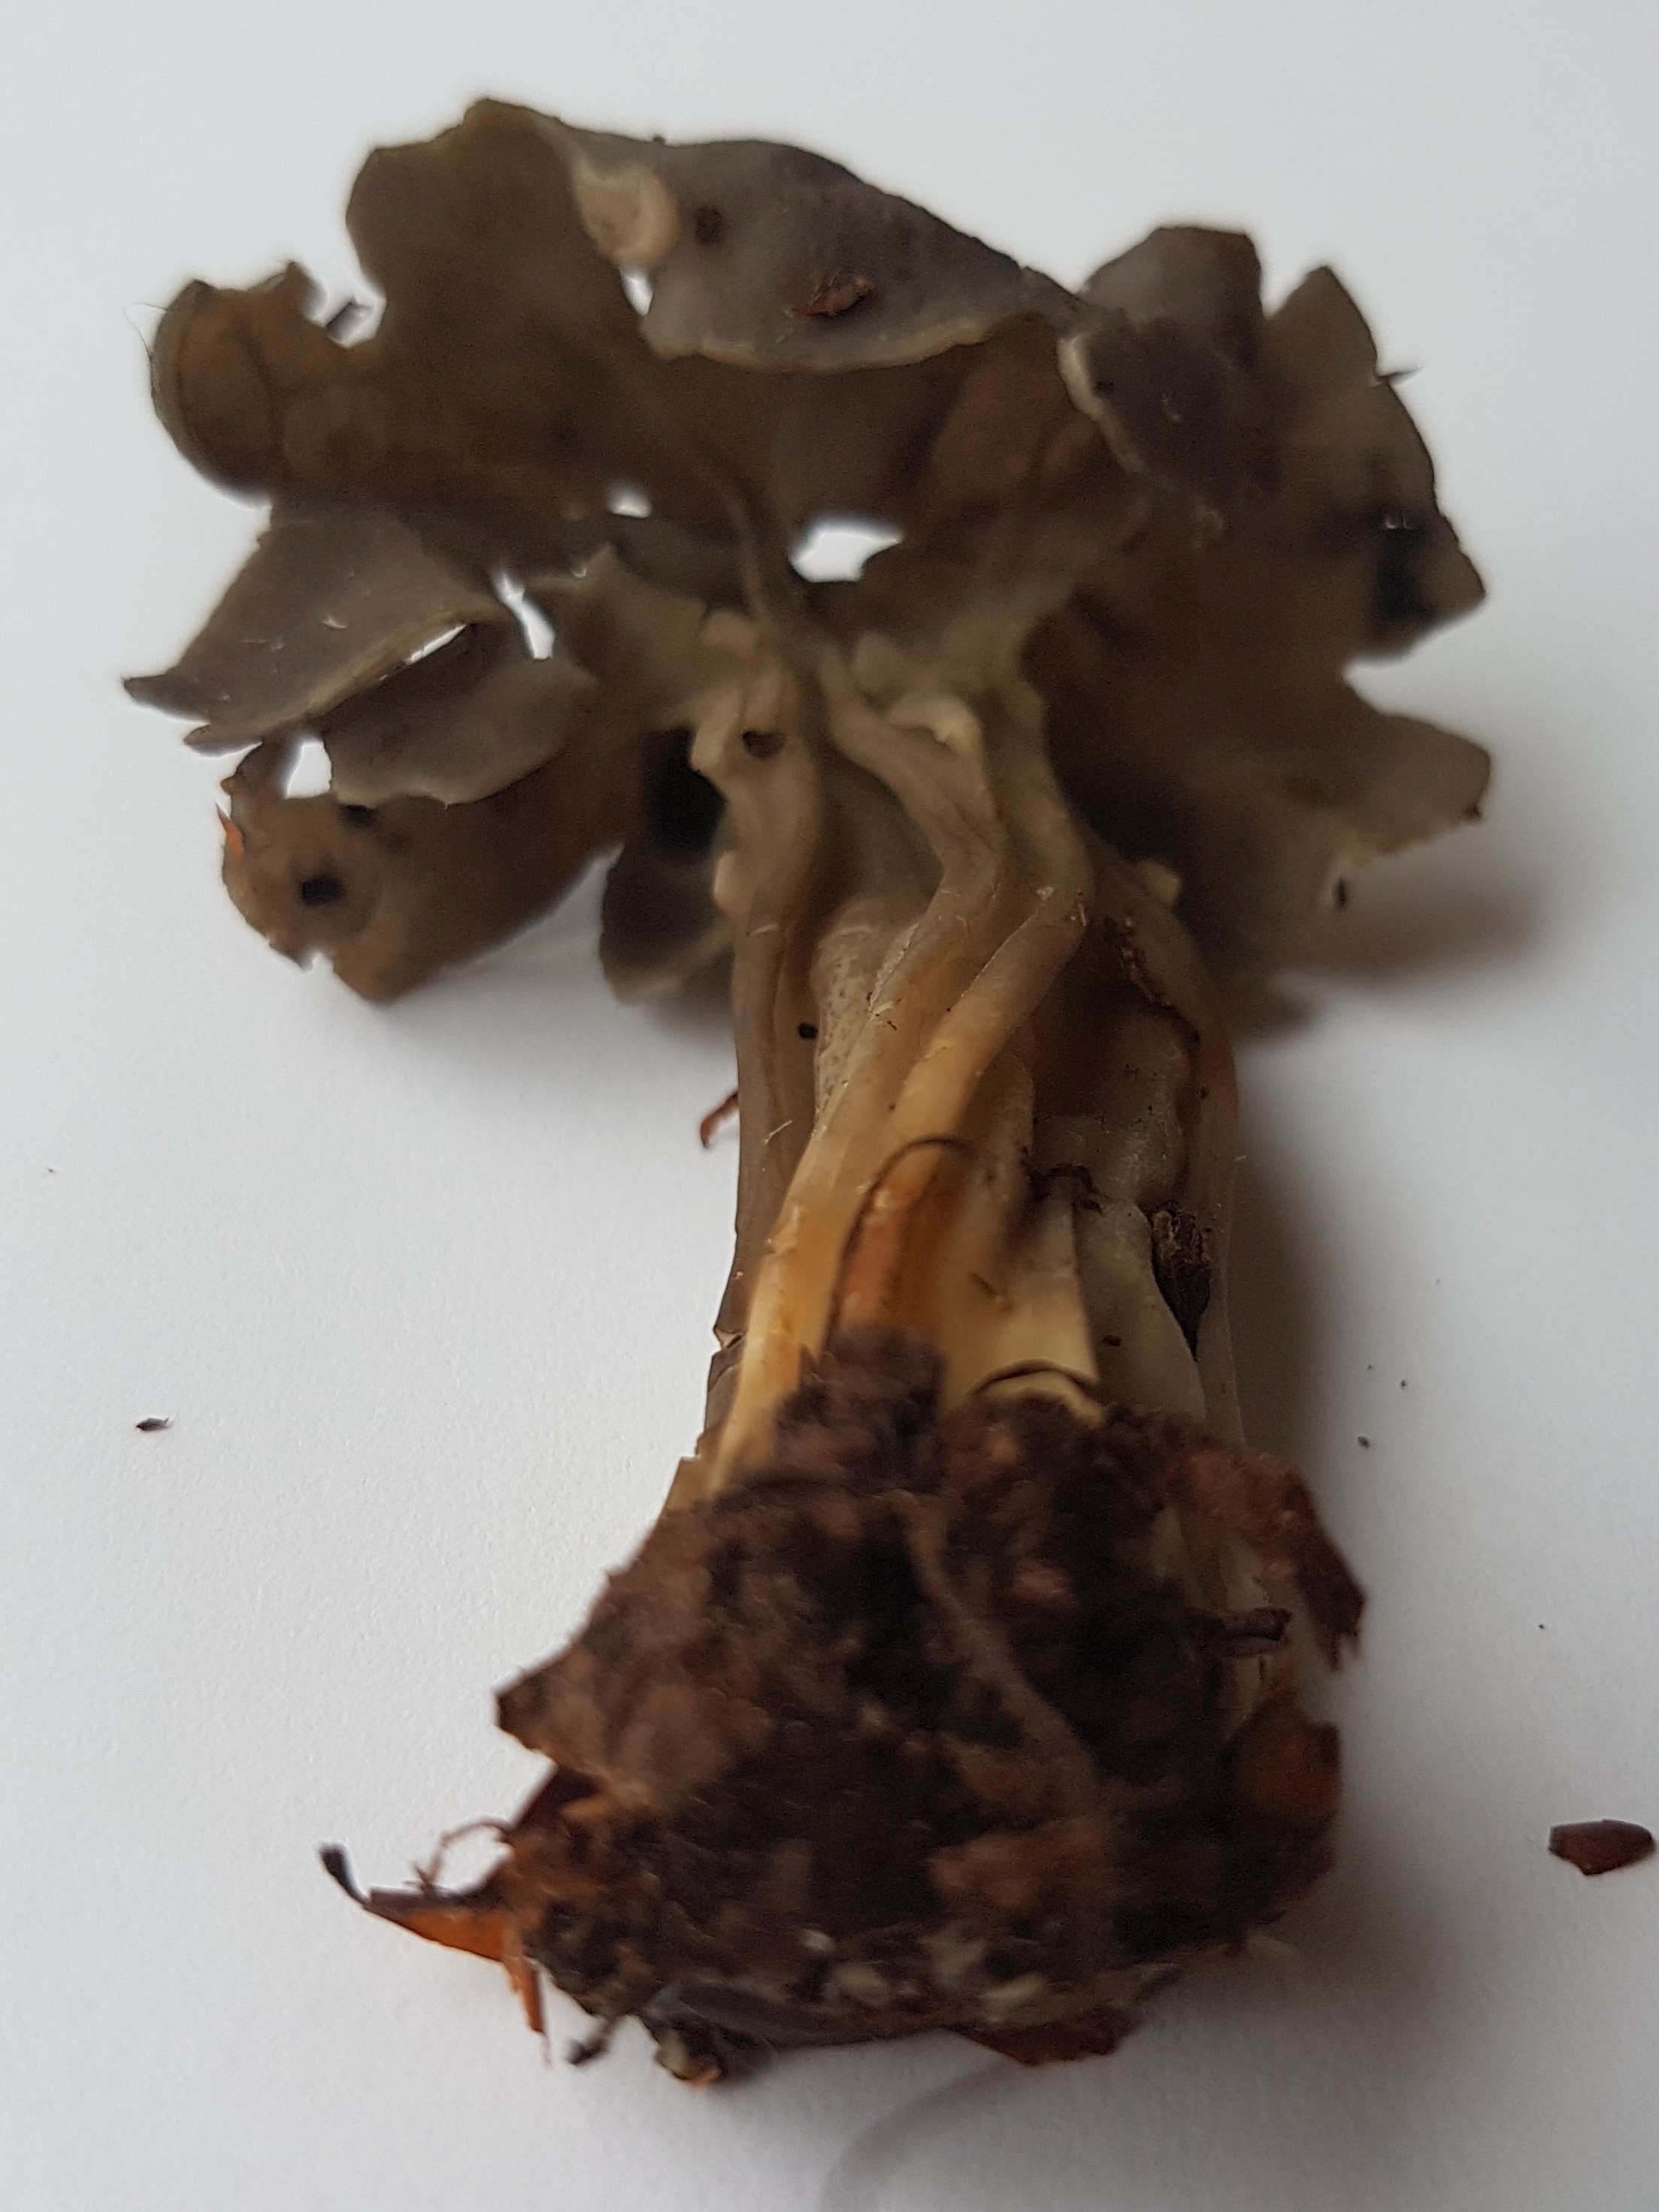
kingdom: Fungi
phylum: Ascomycota
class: Pezizomycetes
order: Pezizales
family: Helvellaceae
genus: Helvella
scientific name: Helvella lacunosa
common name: grubet foldhat
